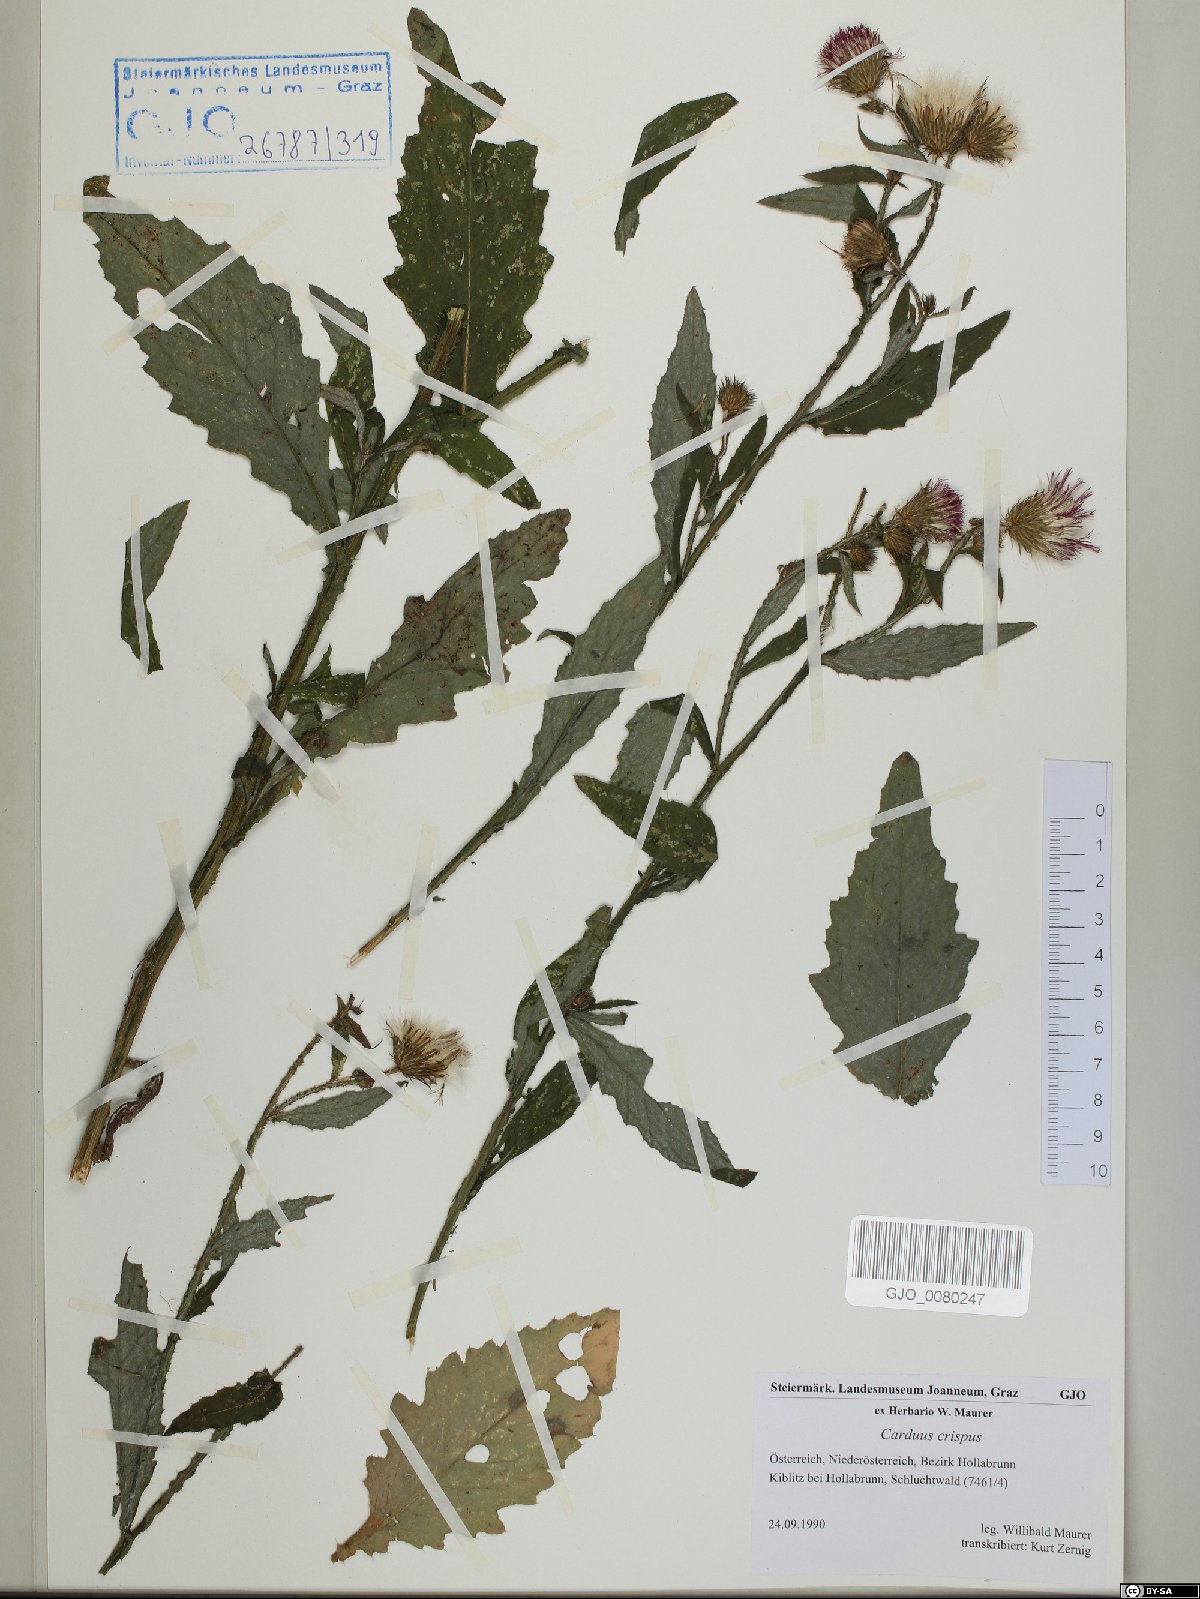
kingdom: Plantae
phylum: Tracheophyta
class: Magnoliopsida
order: Asterales
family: Asteraceae
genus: Carduus
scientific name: Carduus crispus
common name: Welted thistle
